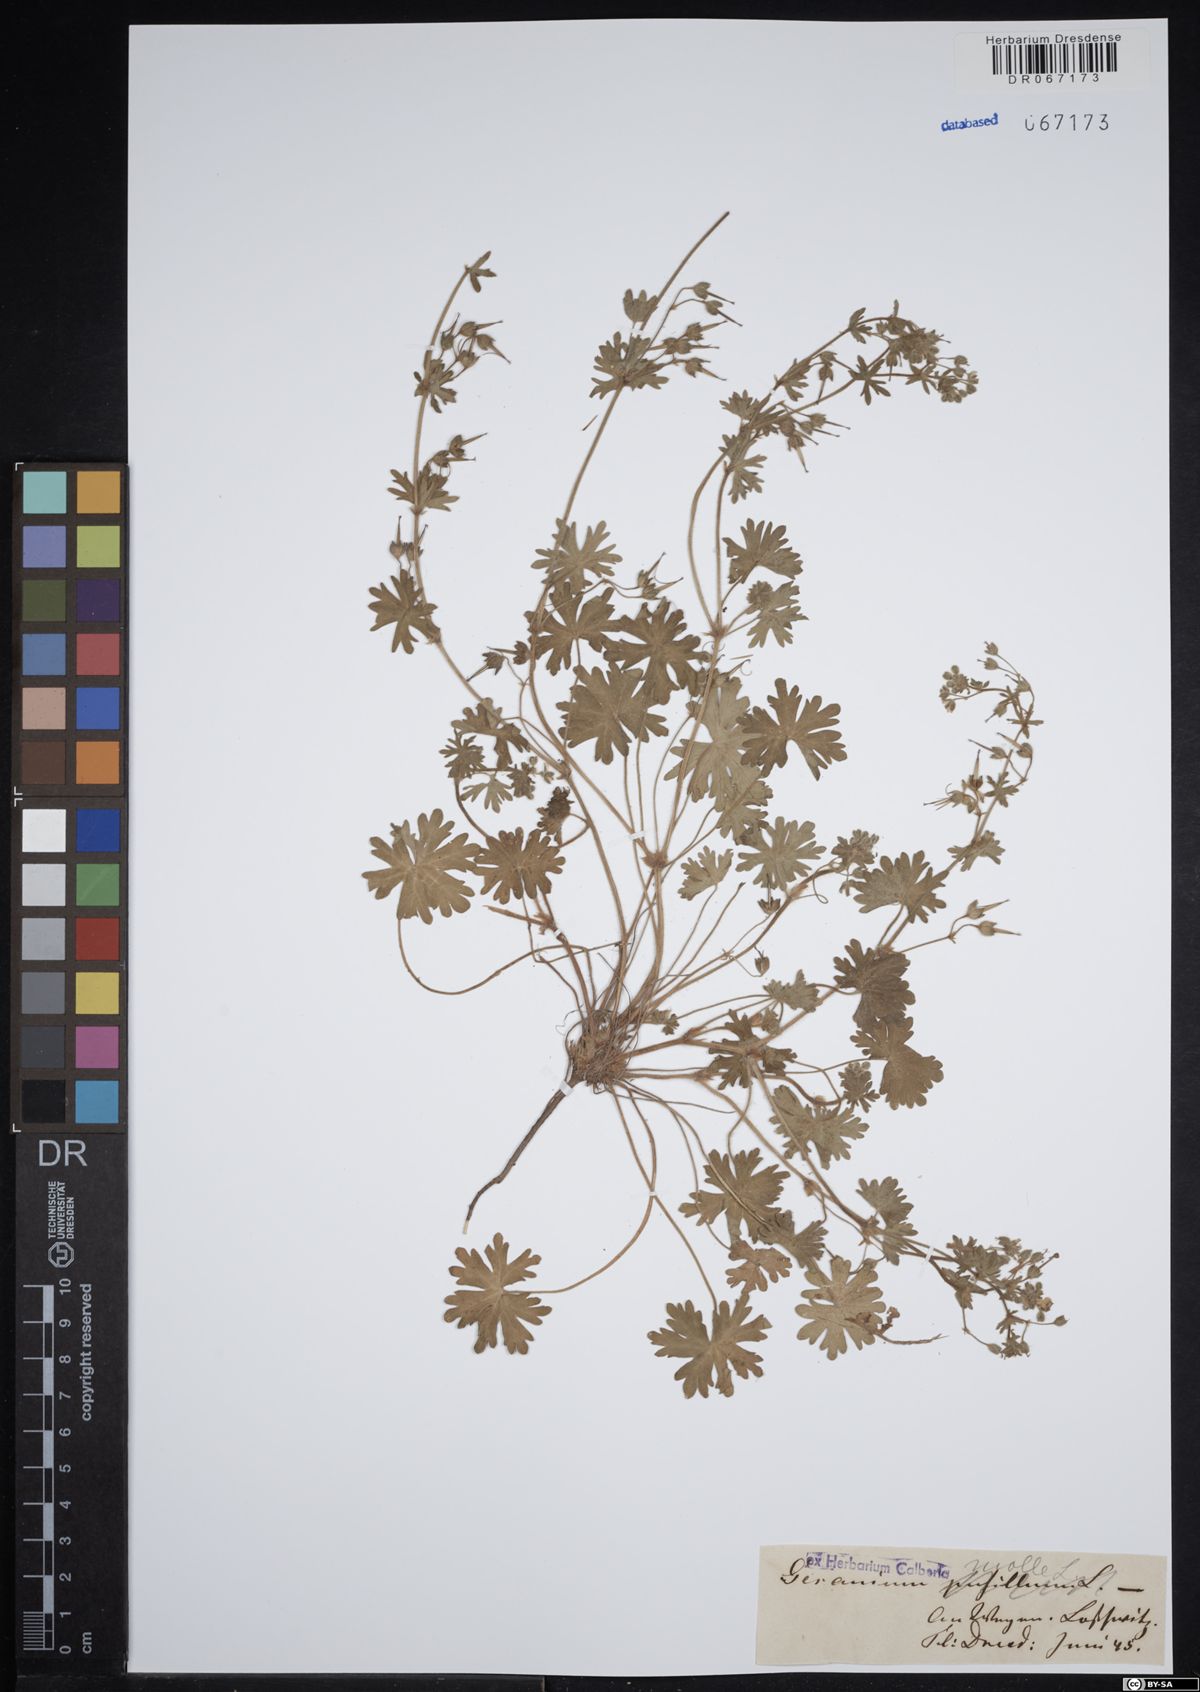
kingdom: Plantae
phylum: Tracheophyta
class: Magnoliopsida
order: Geraniales
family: Geraniaceae
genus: Geranium
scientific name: Geranium molle
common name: Dove's-foot crane's-bill
